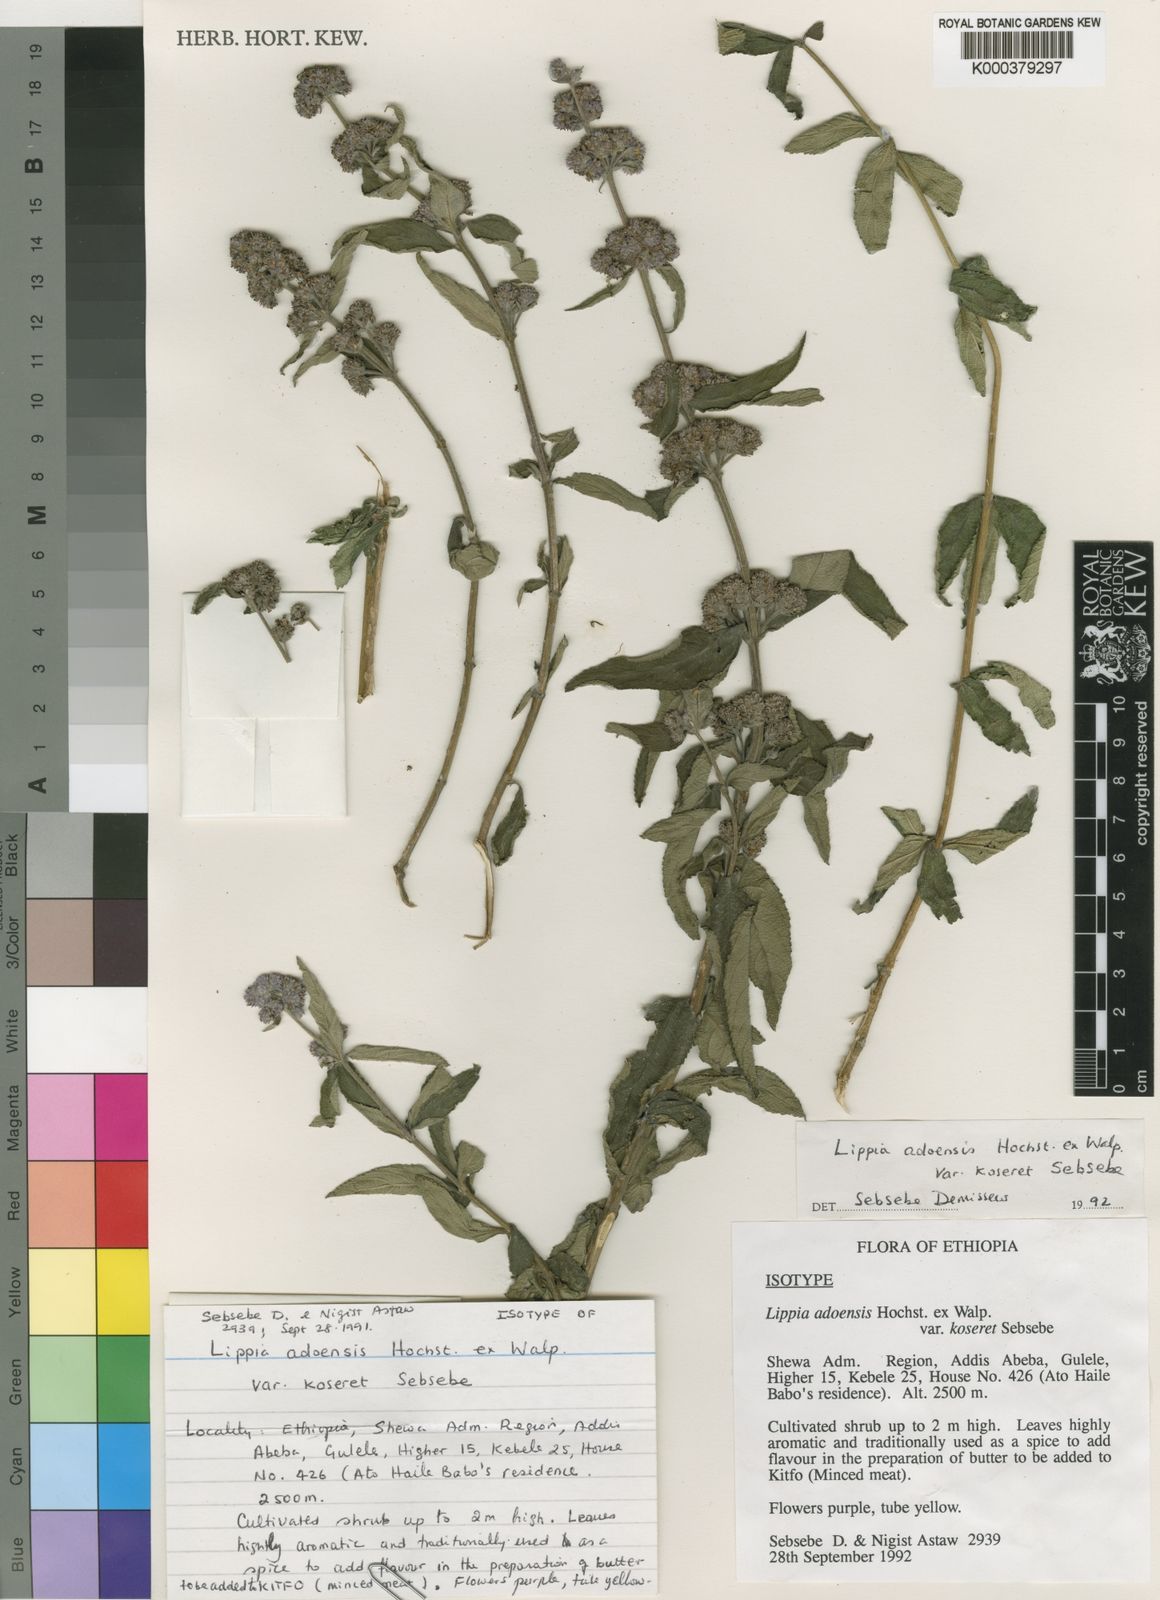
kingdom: Plantae
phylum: Tracheophyta
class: Magnoliopsida
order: Lamiales
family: Verbenaceae
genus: Lippia
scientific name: Lippia abyssinica
